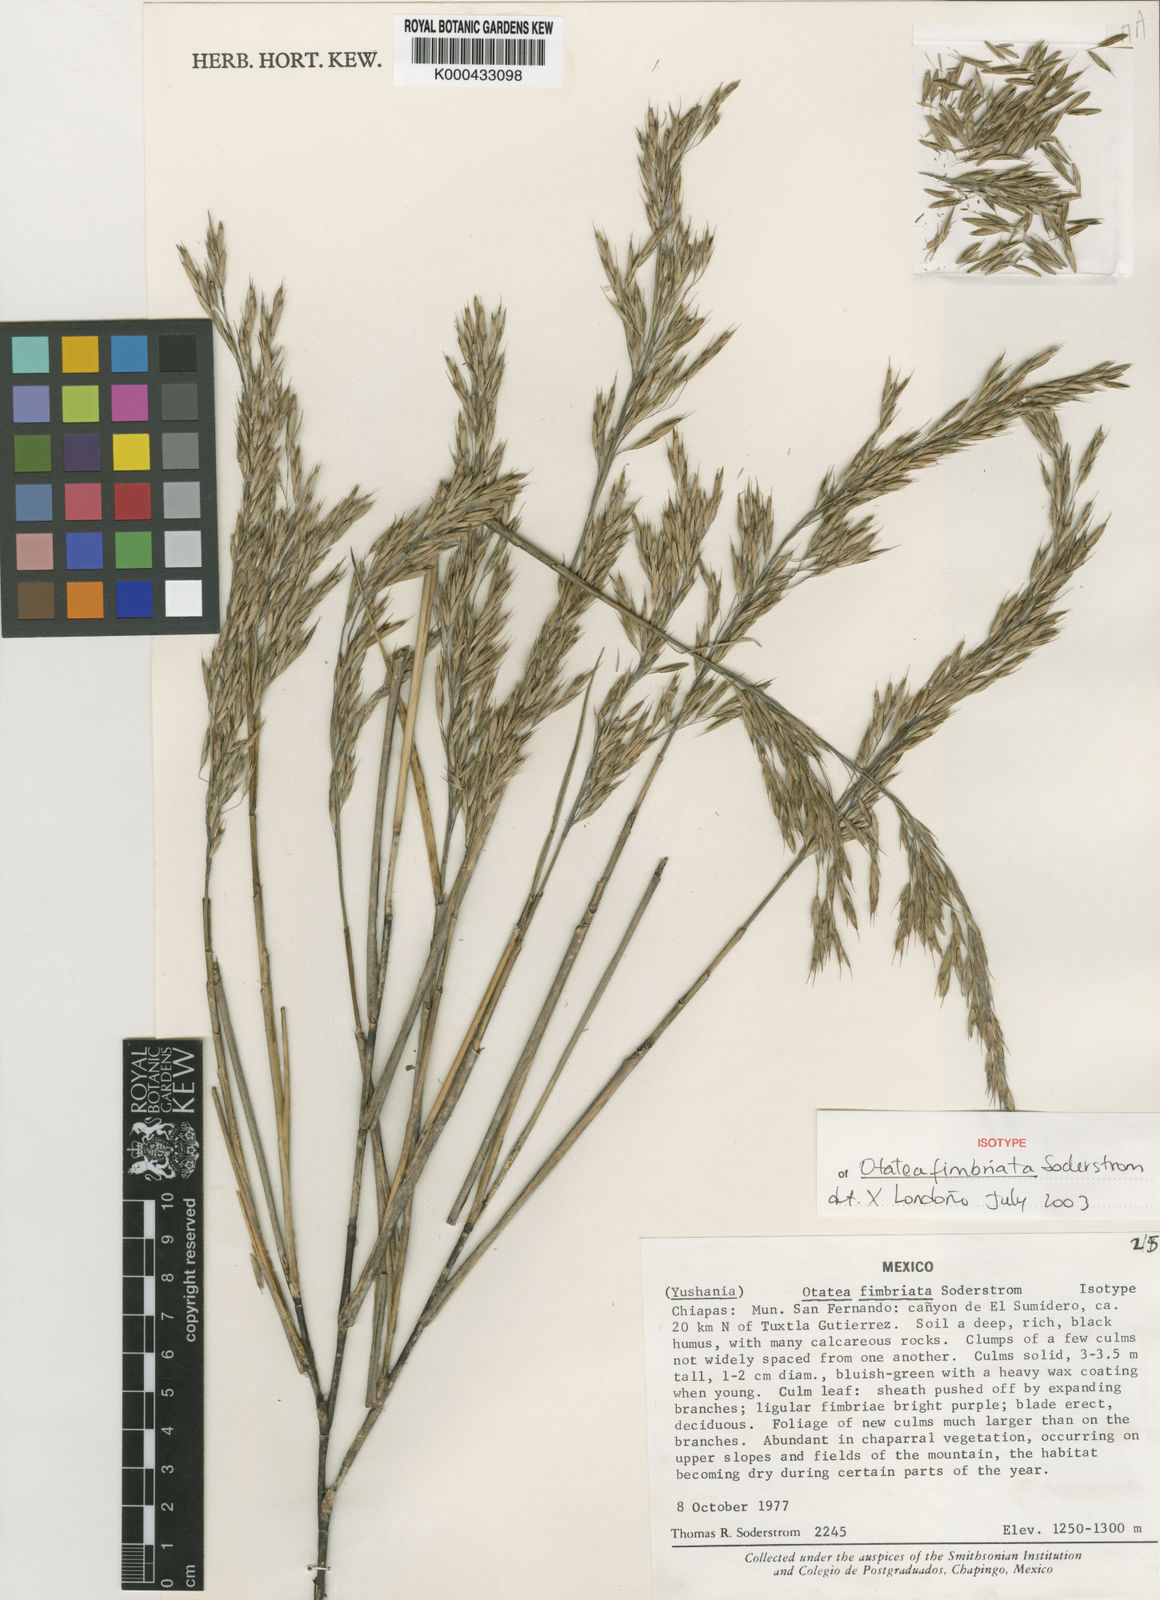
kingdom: Plantae
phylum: Tracheophyta
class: Liliopsida
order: Poales
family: Poaceae
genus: Otatea
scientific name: Otatea fimbriata
